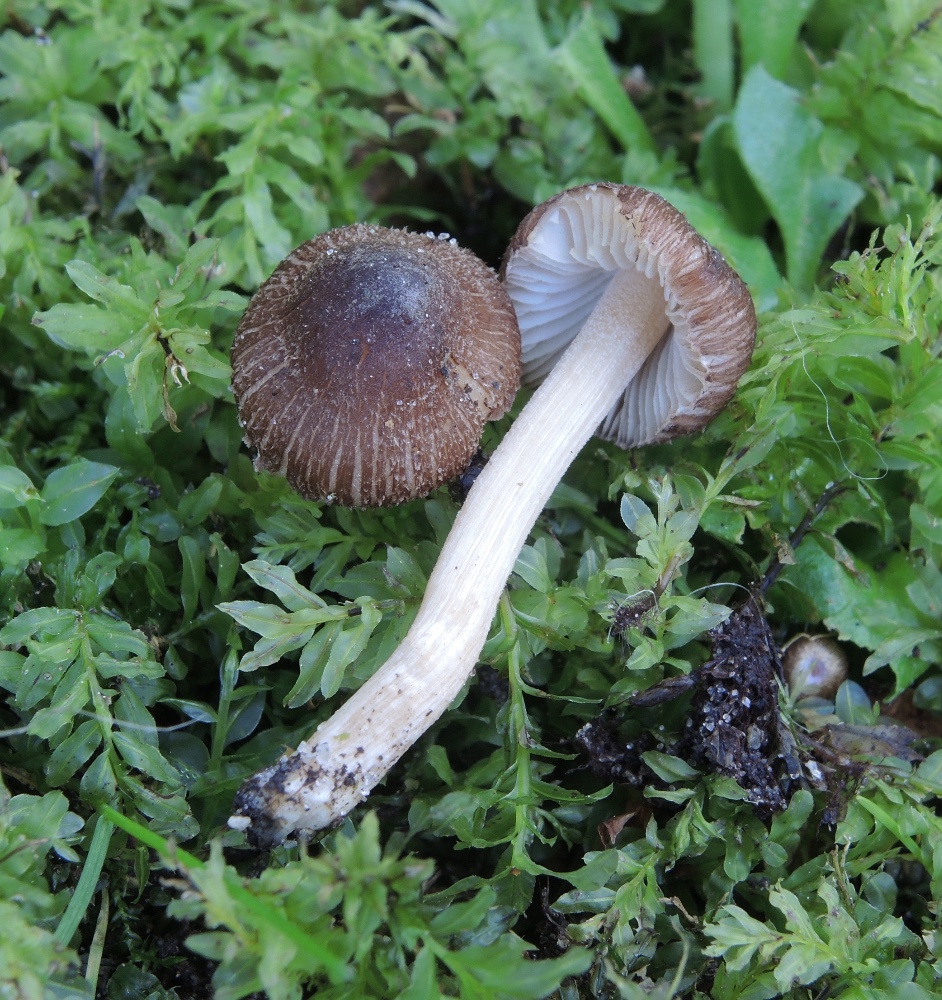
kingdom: Fungi
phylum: Basidiomycota
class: Agaricomycetes
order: Agaricales
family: Inocybaceae
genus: Inocybe
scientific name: Inocybe phaeoleuca
